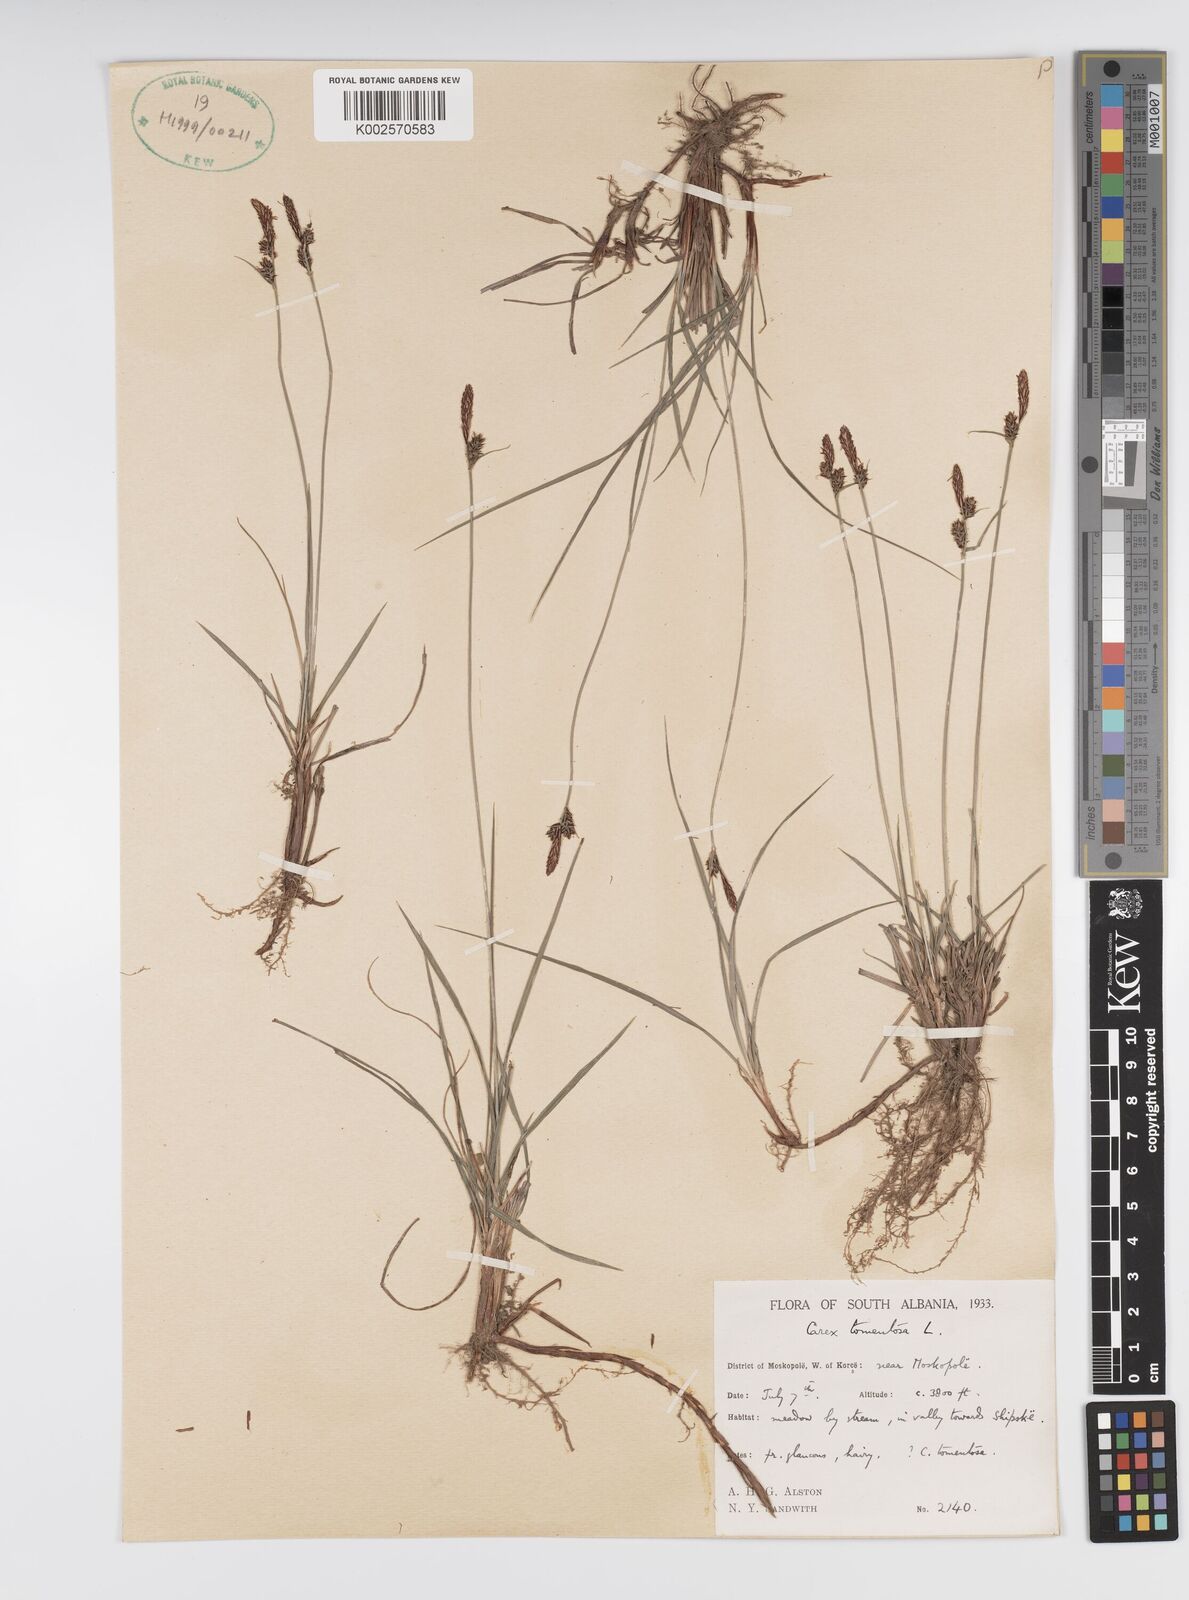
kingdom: Plantae
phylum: Tracheophyta
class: Liliopsida
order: Poales
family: Cyperaceae
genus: Carex
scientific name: Carex montana
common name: Soft-leaved sedge
